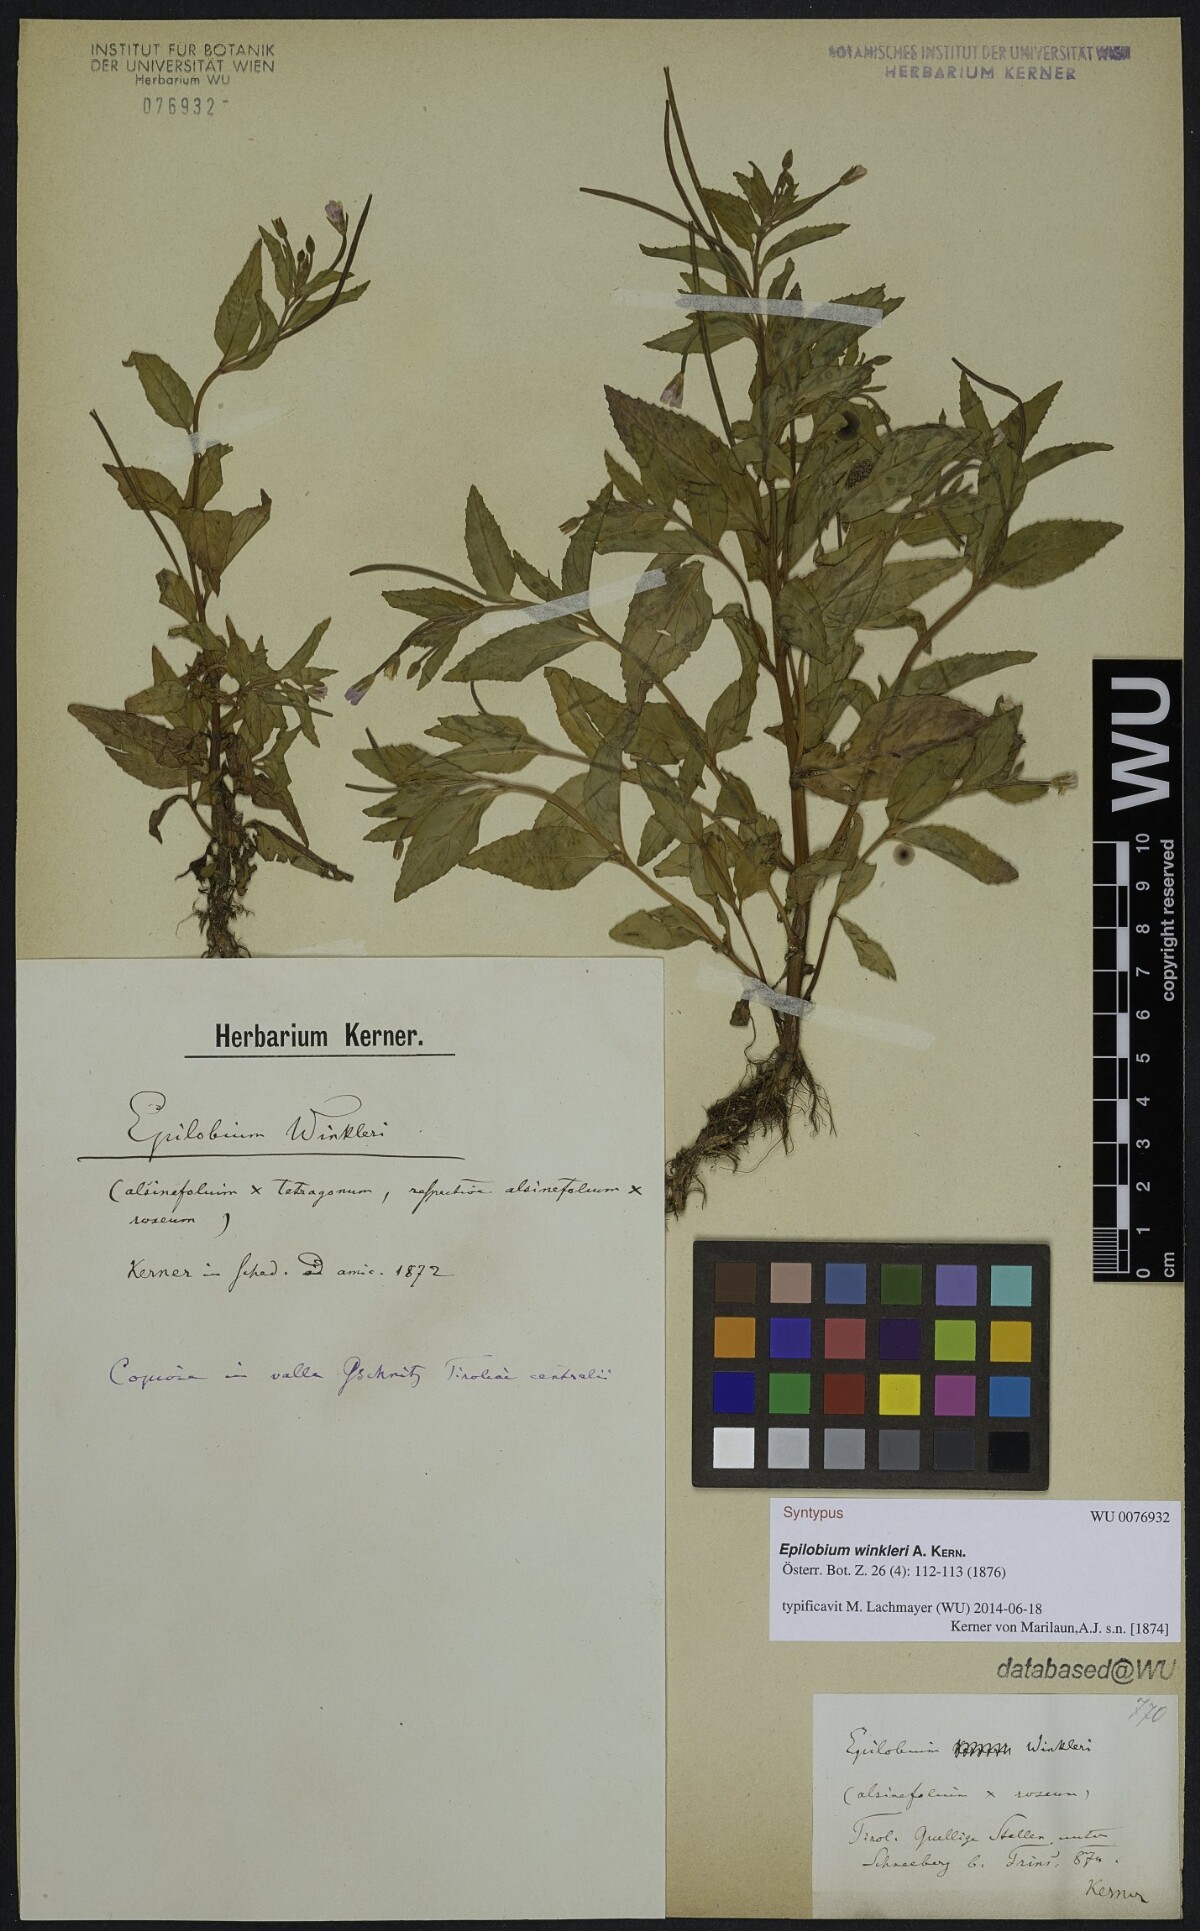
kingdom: Plantae
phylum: Tracheophyta
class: Magnoliopsida
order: Myrtales
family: Onagraceae
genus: Epilobium
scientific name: Epilobium winkleri
